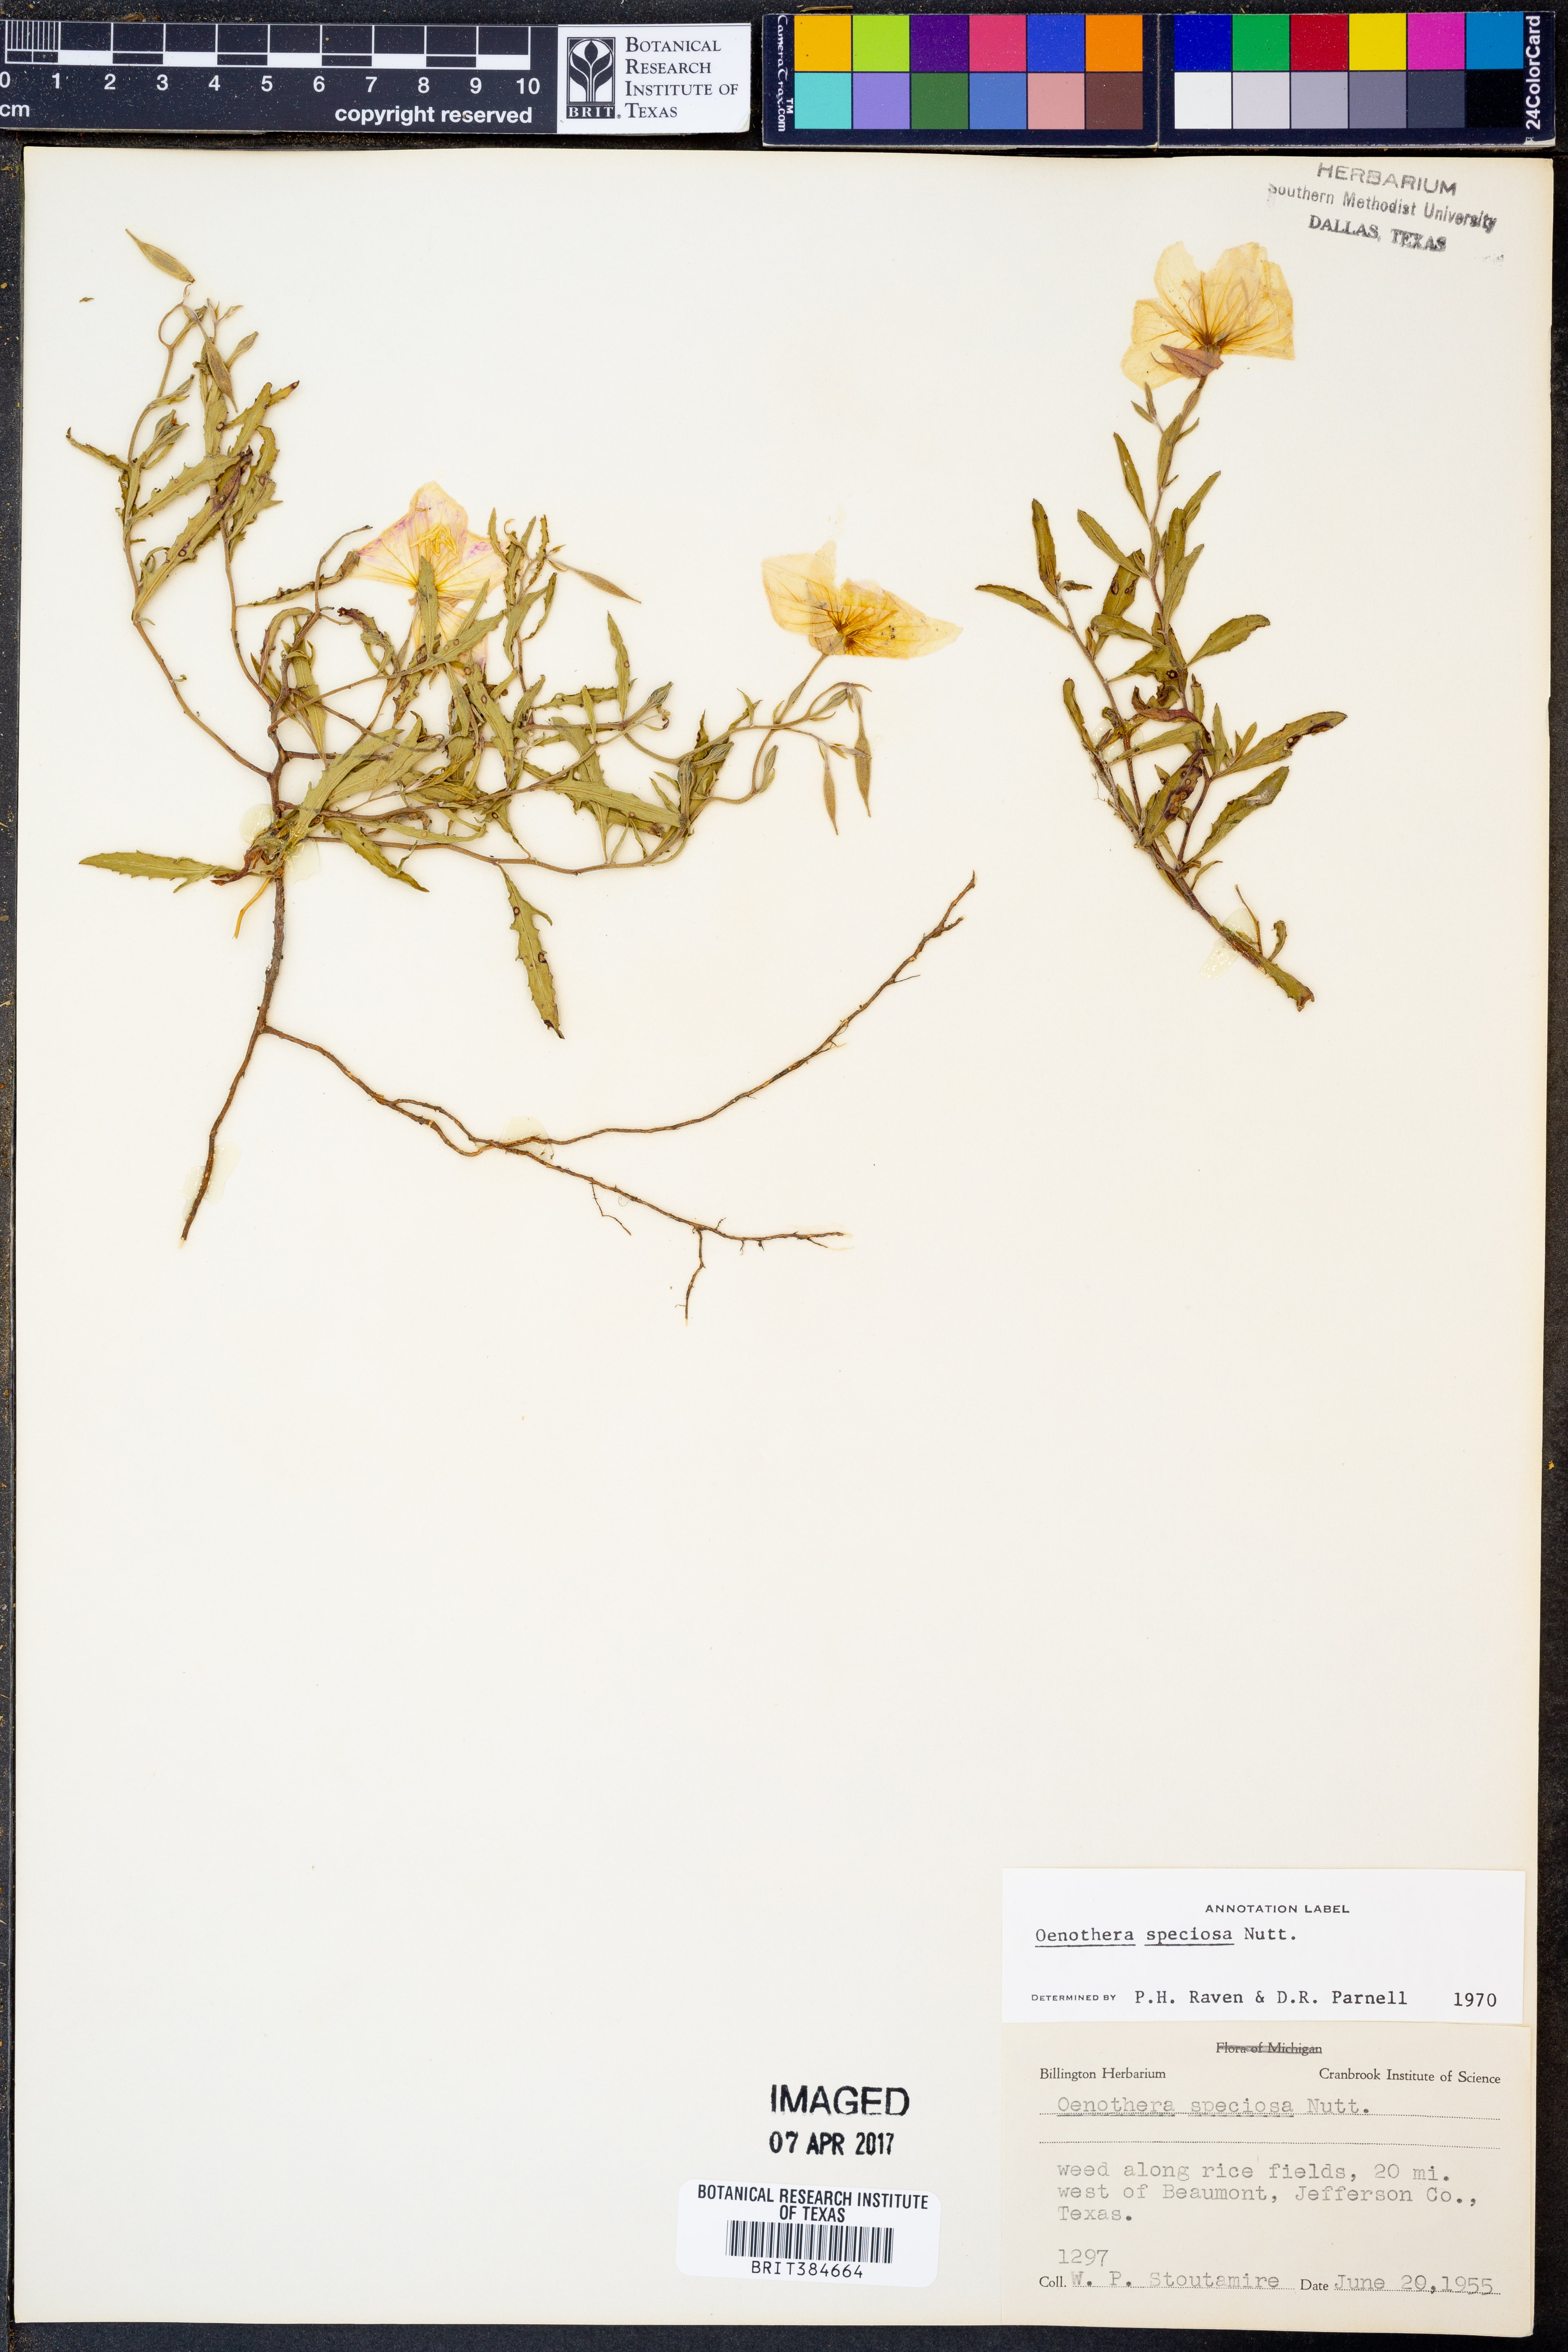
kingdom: Plantae
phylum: Tracheophyta
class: Magnoliopsida
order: Myrtales
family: Onagraceae
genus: Oenothera
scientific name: Oenothera speciosa
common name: White evening-primrose
